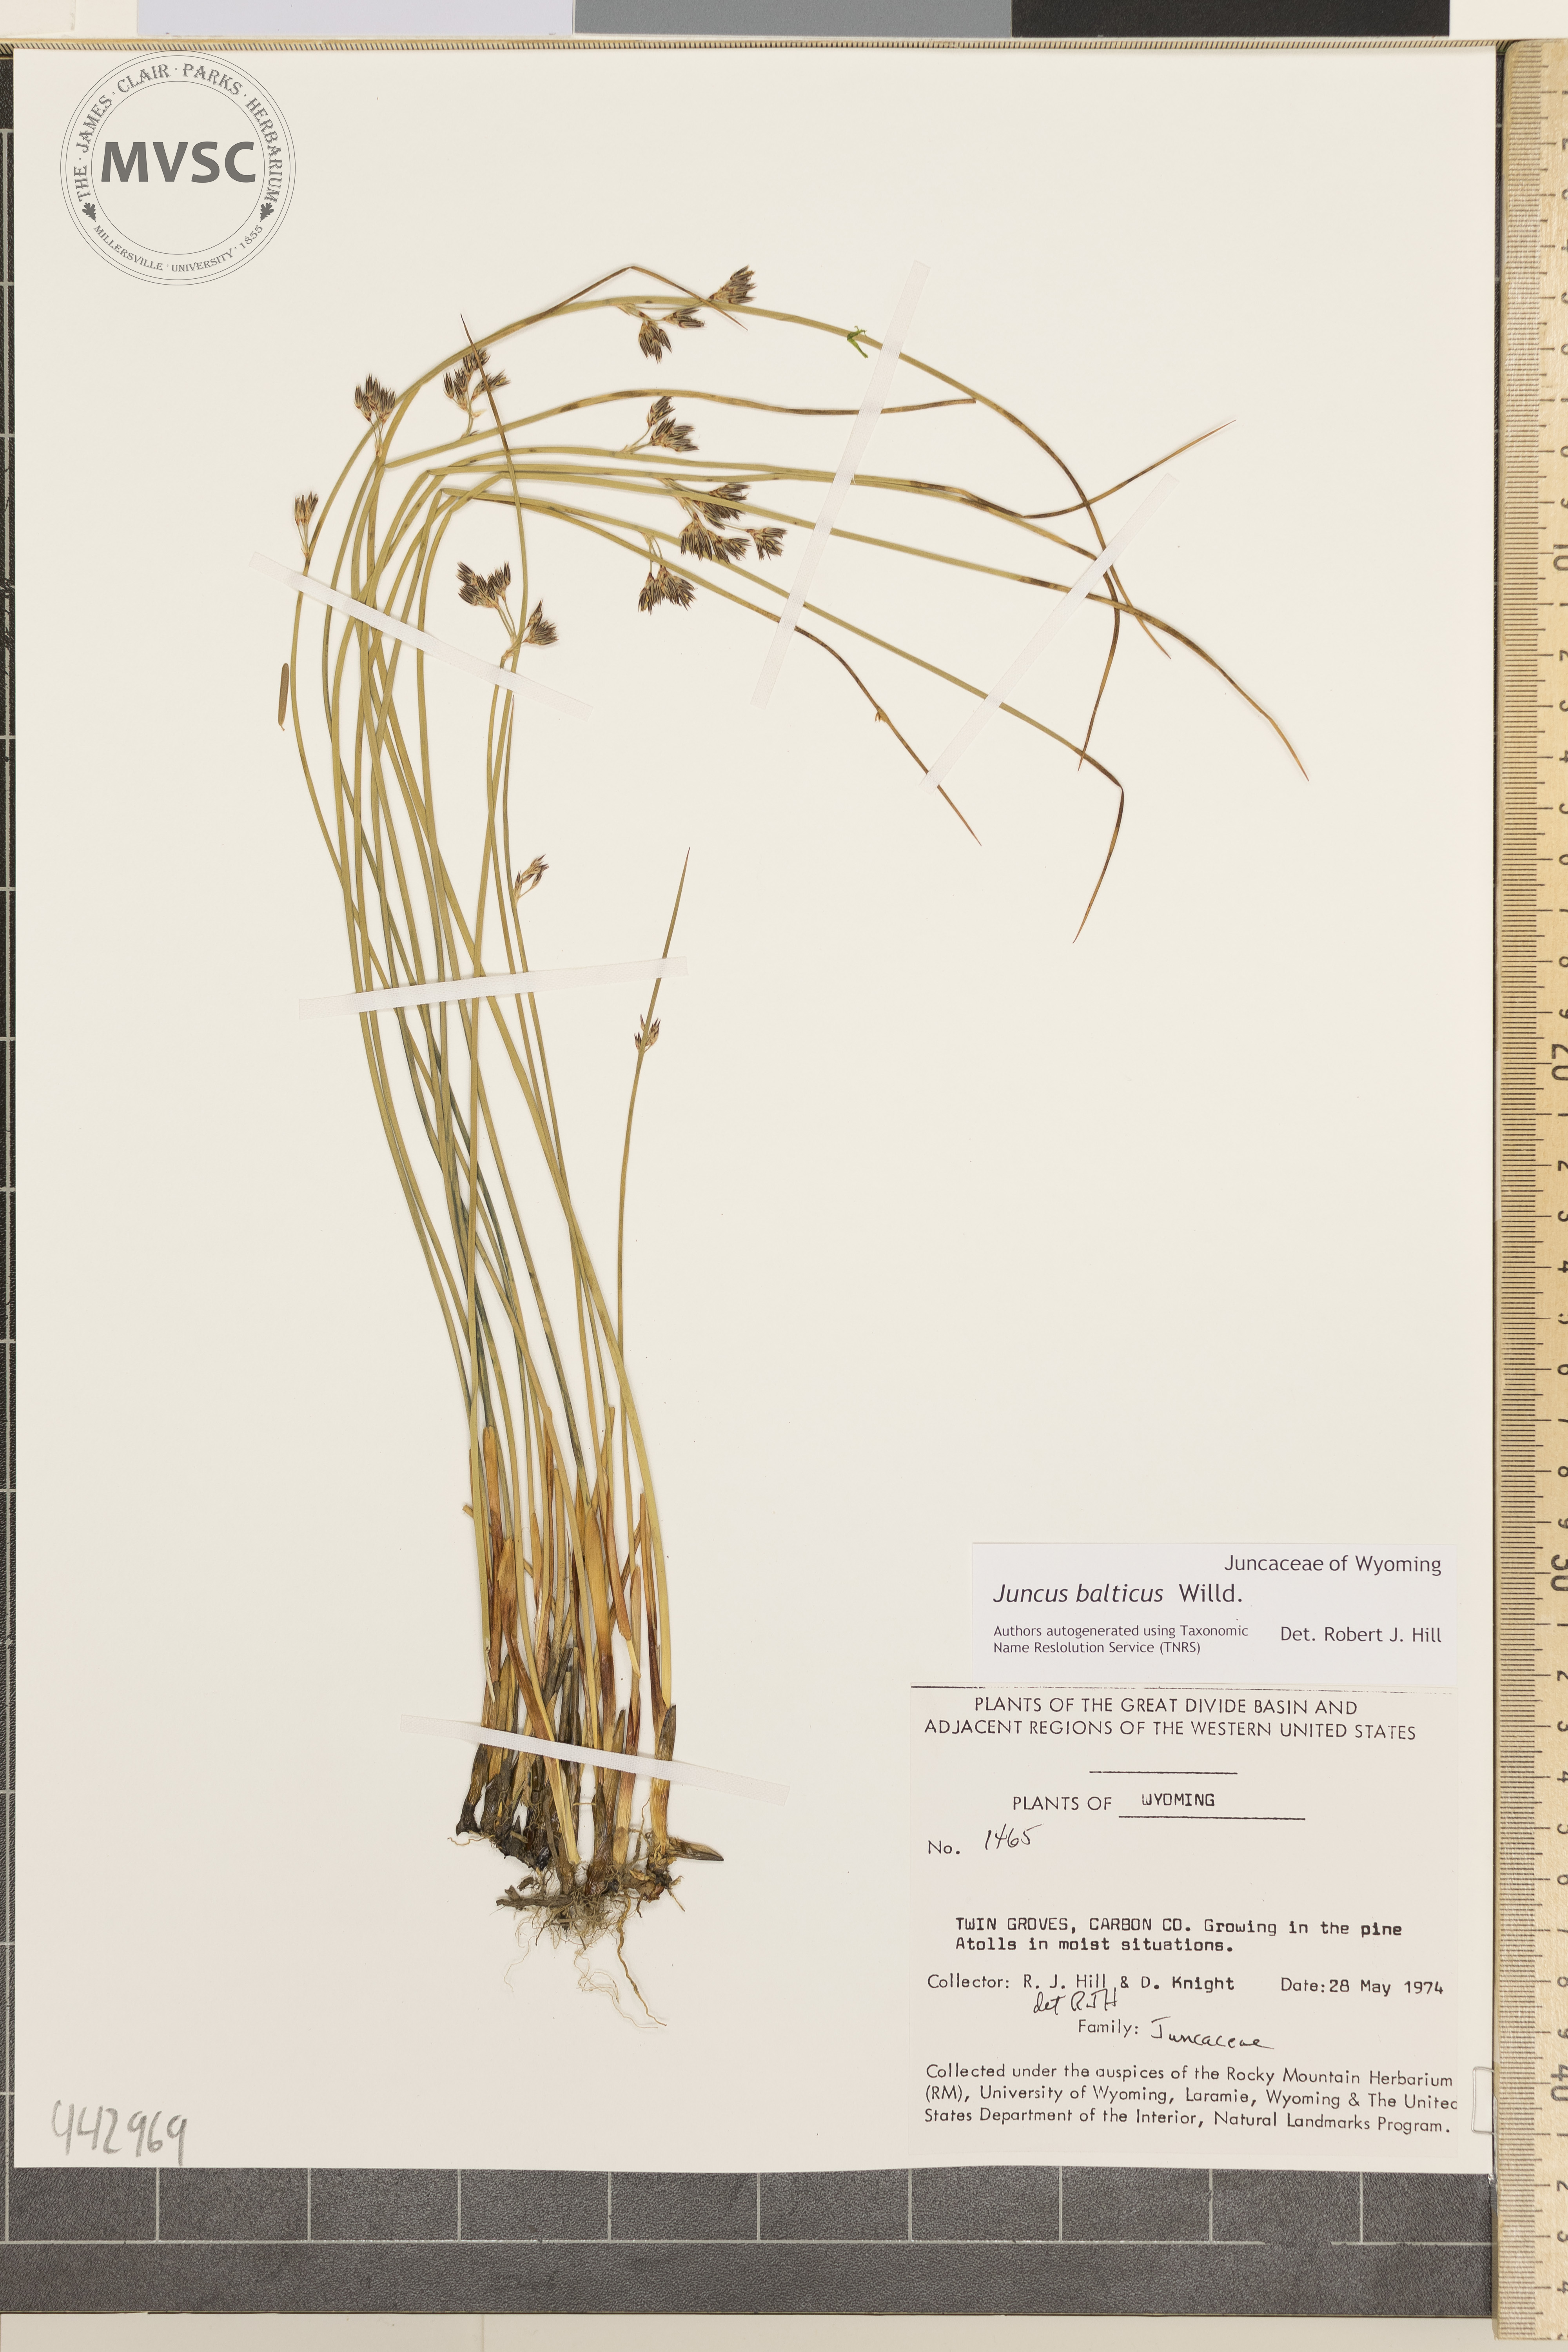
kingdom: Plantae
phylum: Tracheophyta
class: Liliopsida
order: Poales
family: Juncaceae
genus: Juncus
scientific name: Juncus balticus
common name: Baltic rush
